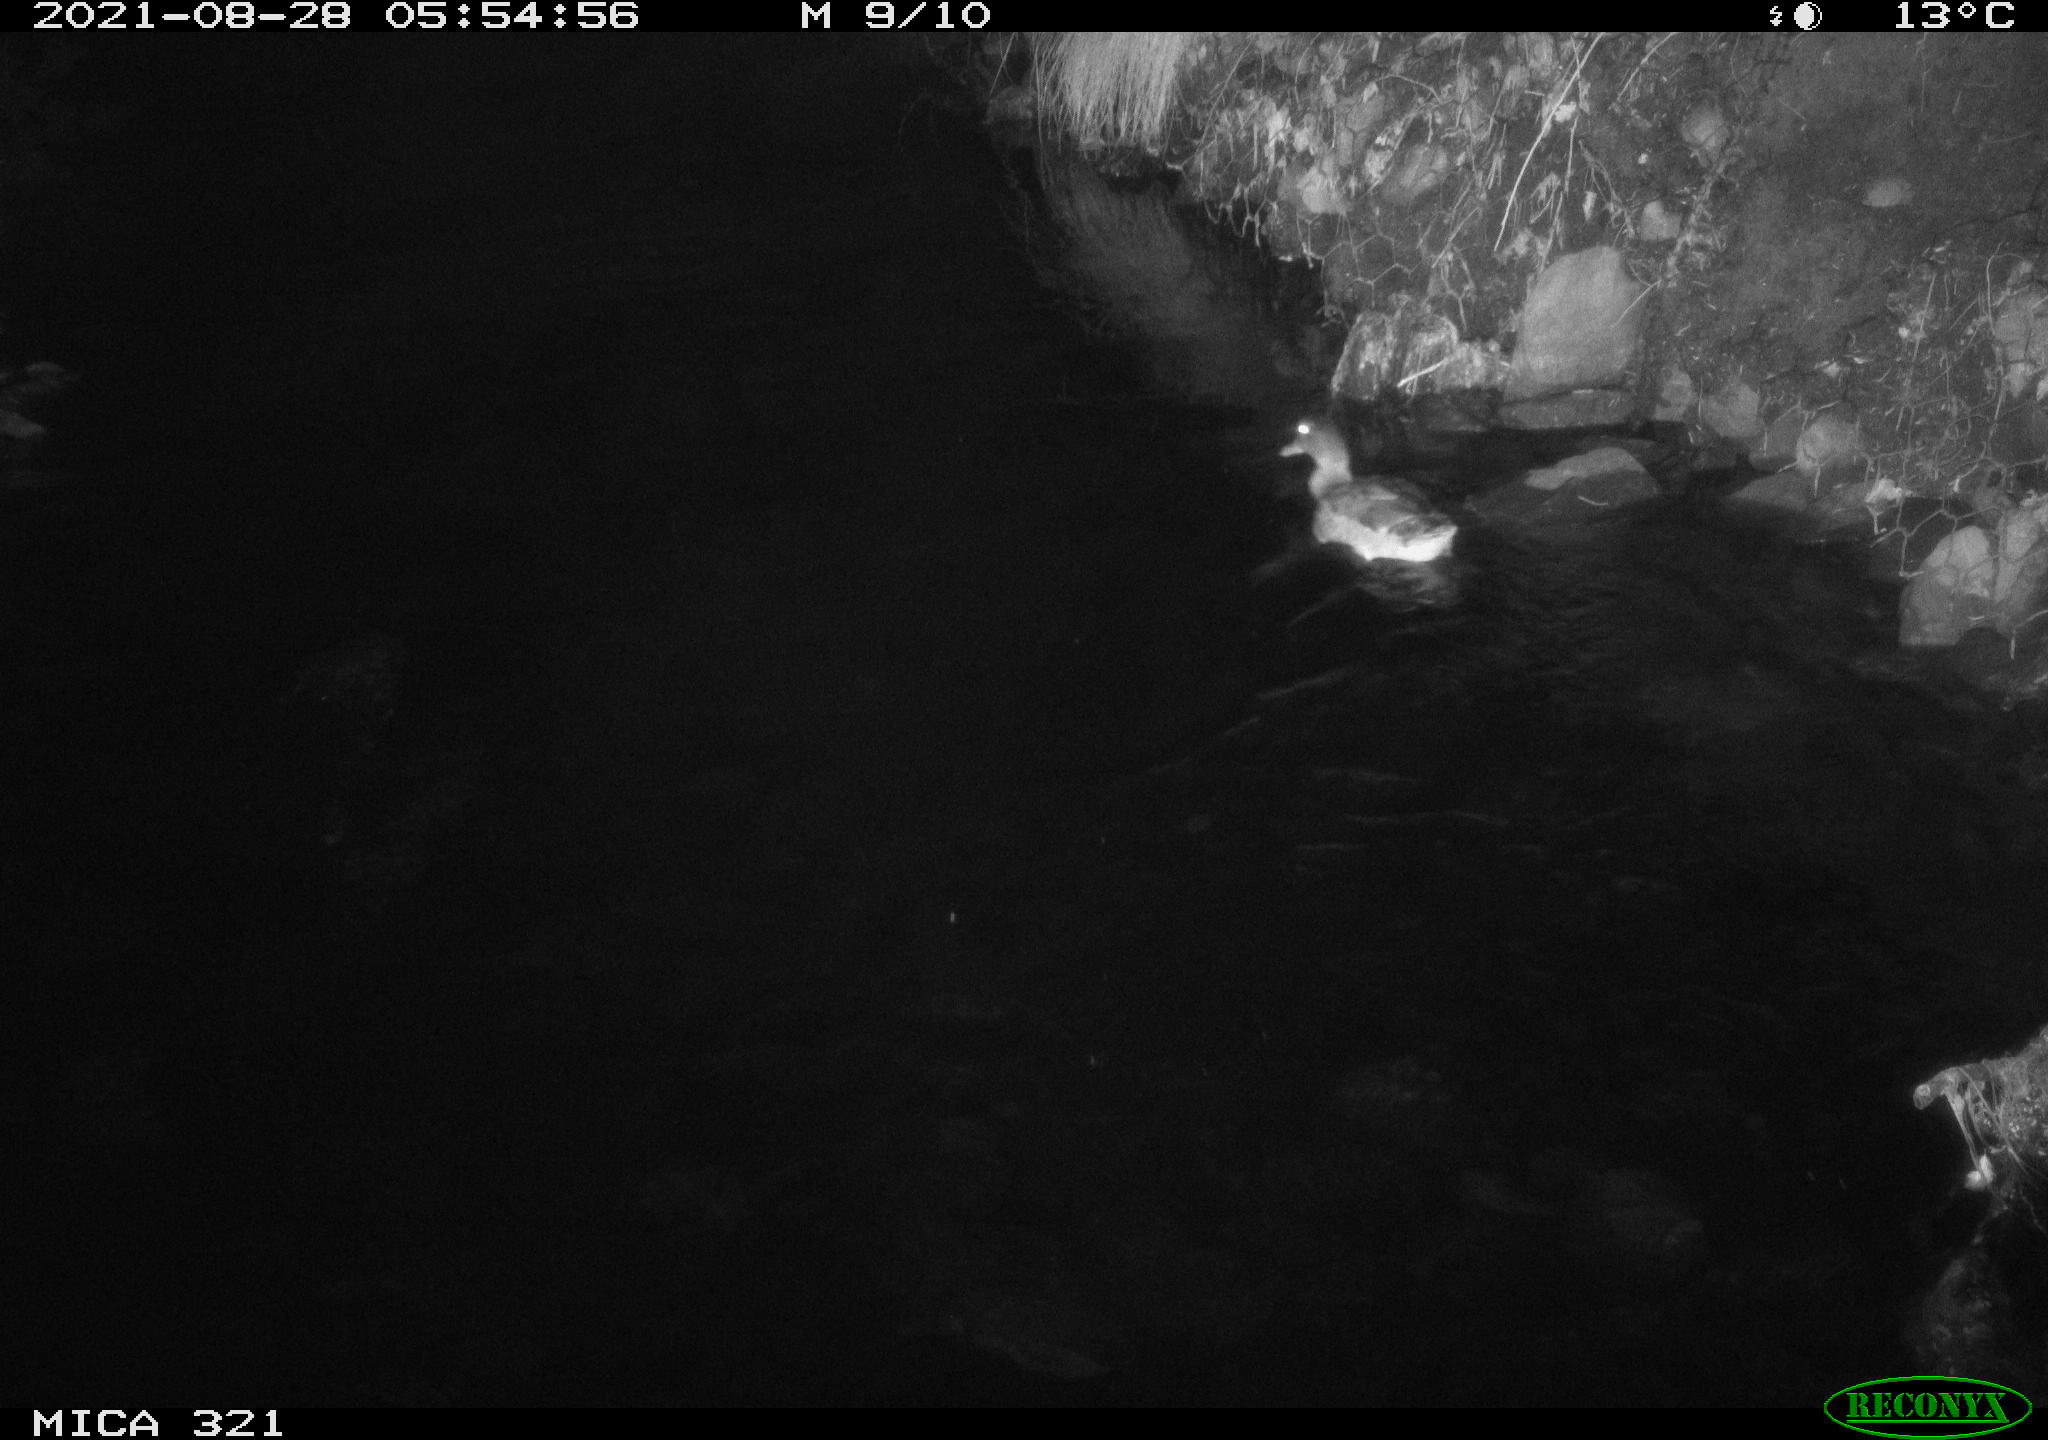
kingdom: Animalia
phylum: Chordata
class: Aves
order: Anseriformes
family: Anatidae
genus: Anas
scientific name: Anas platyrhynchos
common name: Mallard
